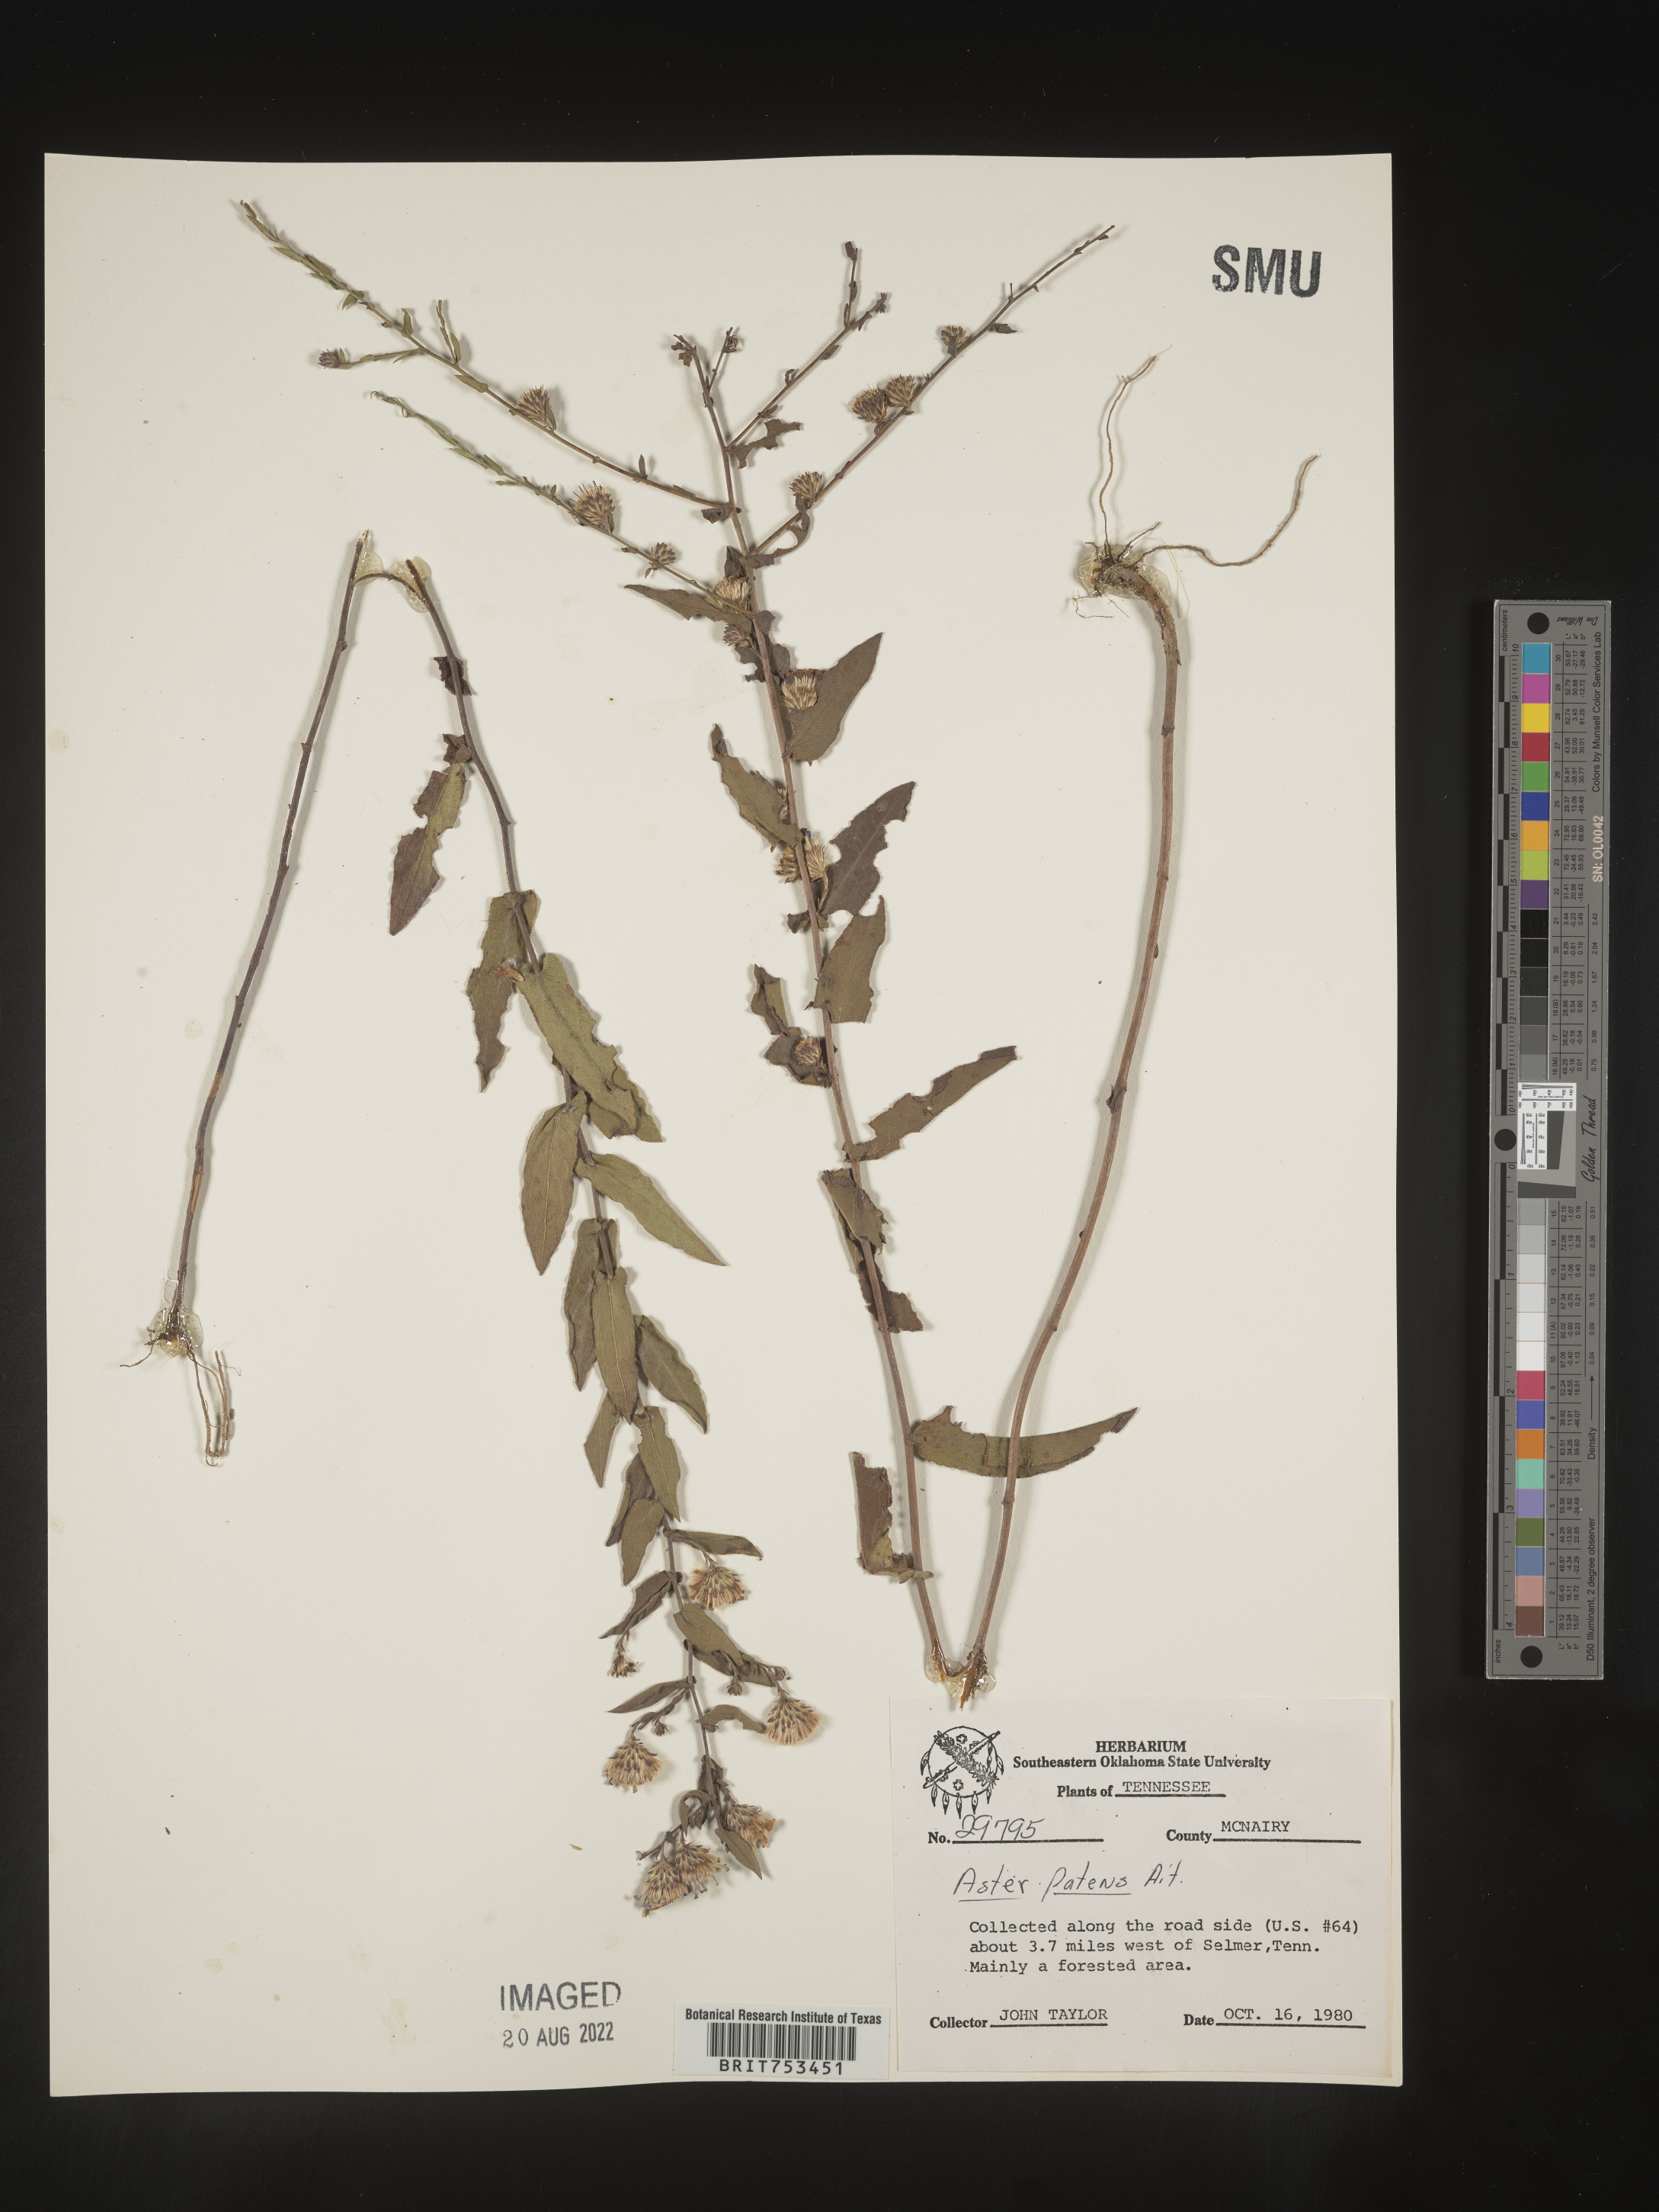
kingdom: Plantae
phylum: Tracheophyta
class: Magnoliopsida
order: Asterales
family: Asteraceae
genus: Symphyotrichum
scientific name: Symphyotrichum patens
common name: Late purple aster
